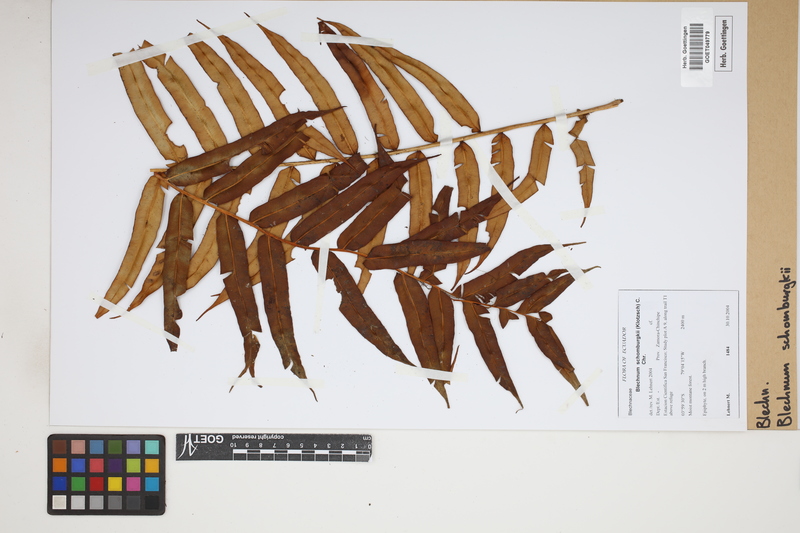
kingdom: Plantae
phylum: Tracheophyta
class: Polypodiopsida
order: Polypodiales
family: Blechnaceae
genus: Lomariocycas
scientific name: Lomariocycas schomburgkii
